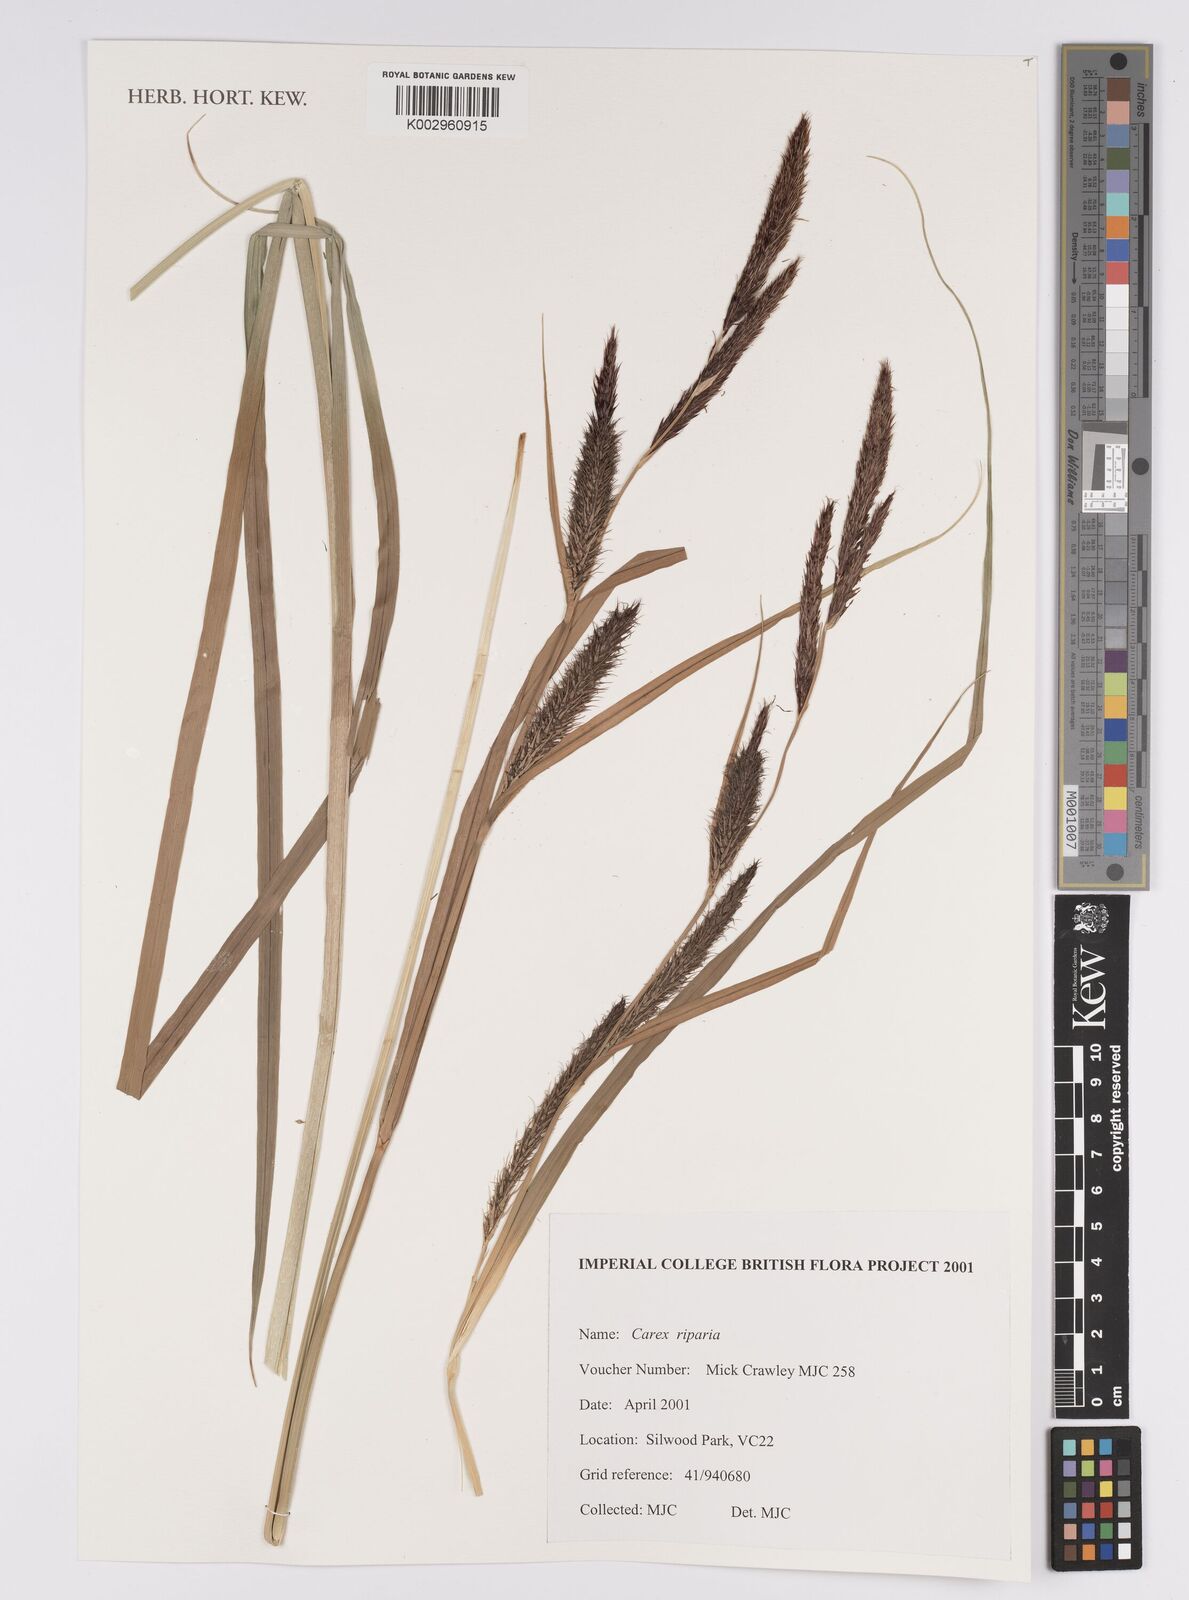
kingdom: Plantae
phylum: Tracheophyta
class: Liliopsida
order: Poales
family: Cyperaceae
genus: Carex
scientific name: Carex riparia
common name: Greater pond-sedge
